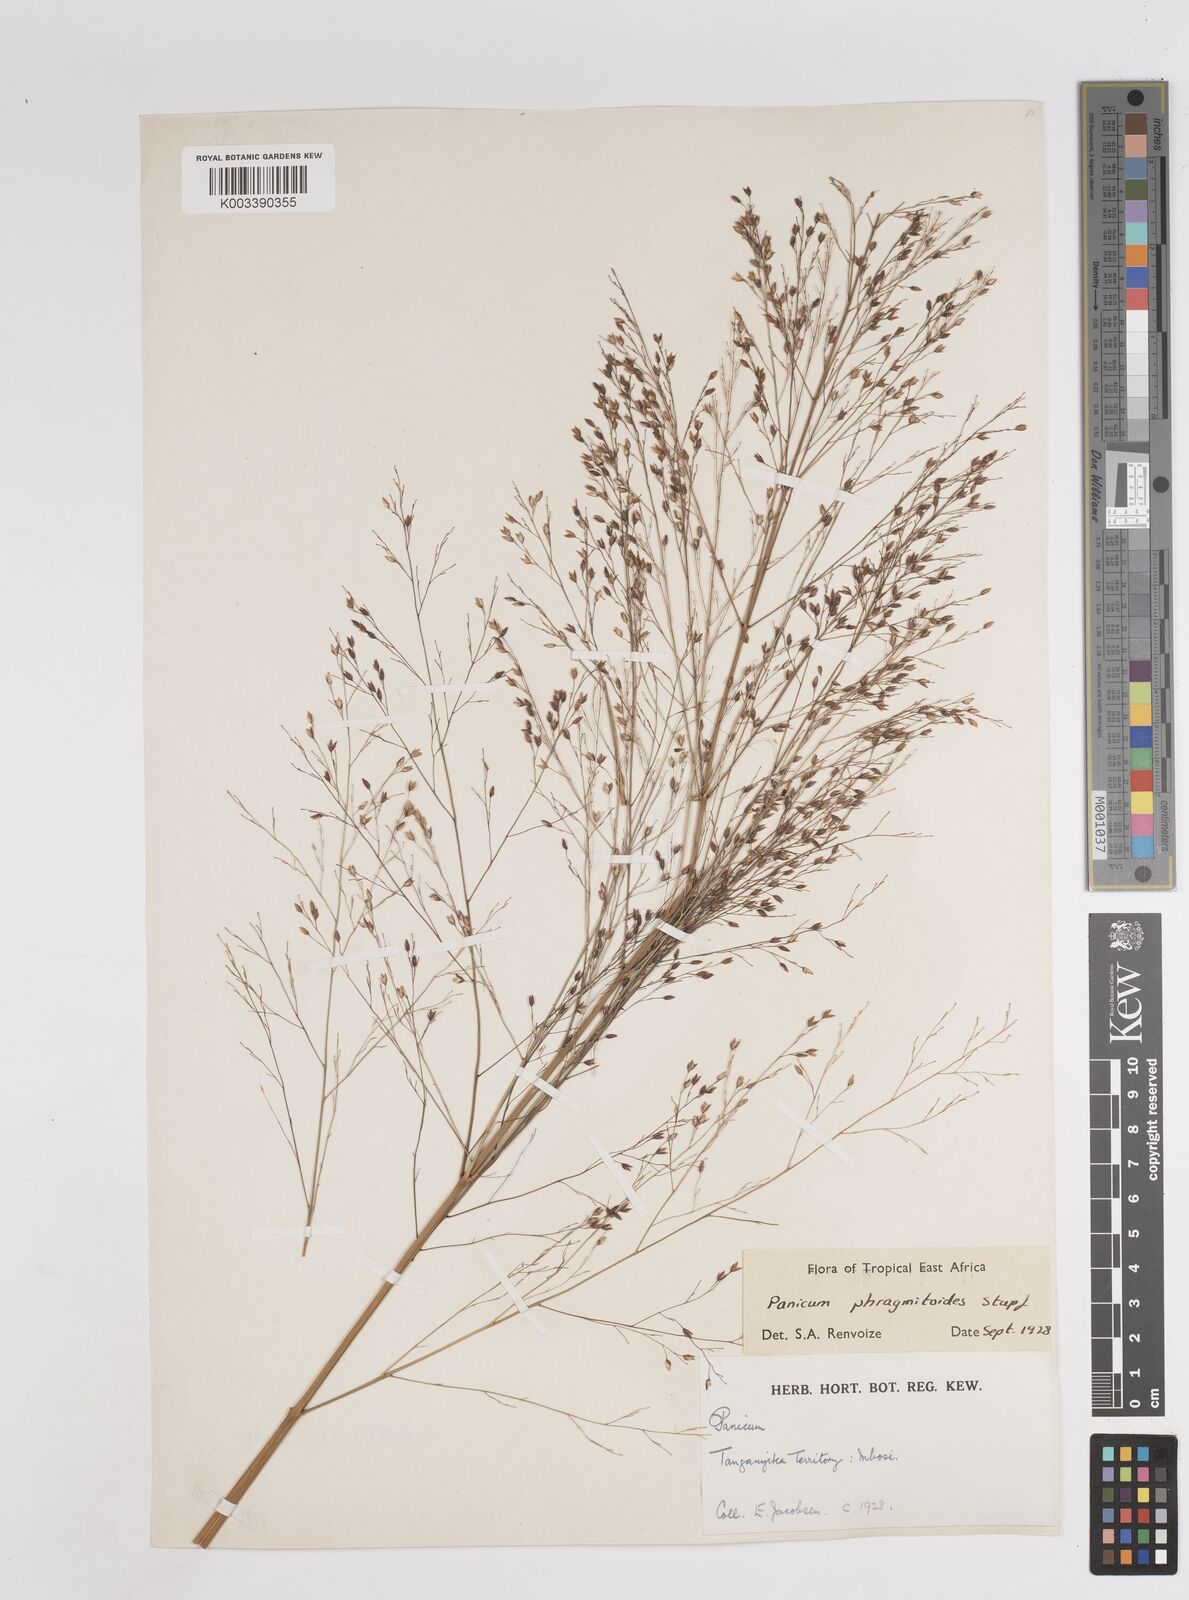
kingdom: Plantae
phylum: Tracheophyta
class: Liliopsida
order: Poales
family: Poaceae
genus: Panicum
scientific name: Panicum phragmitoides
